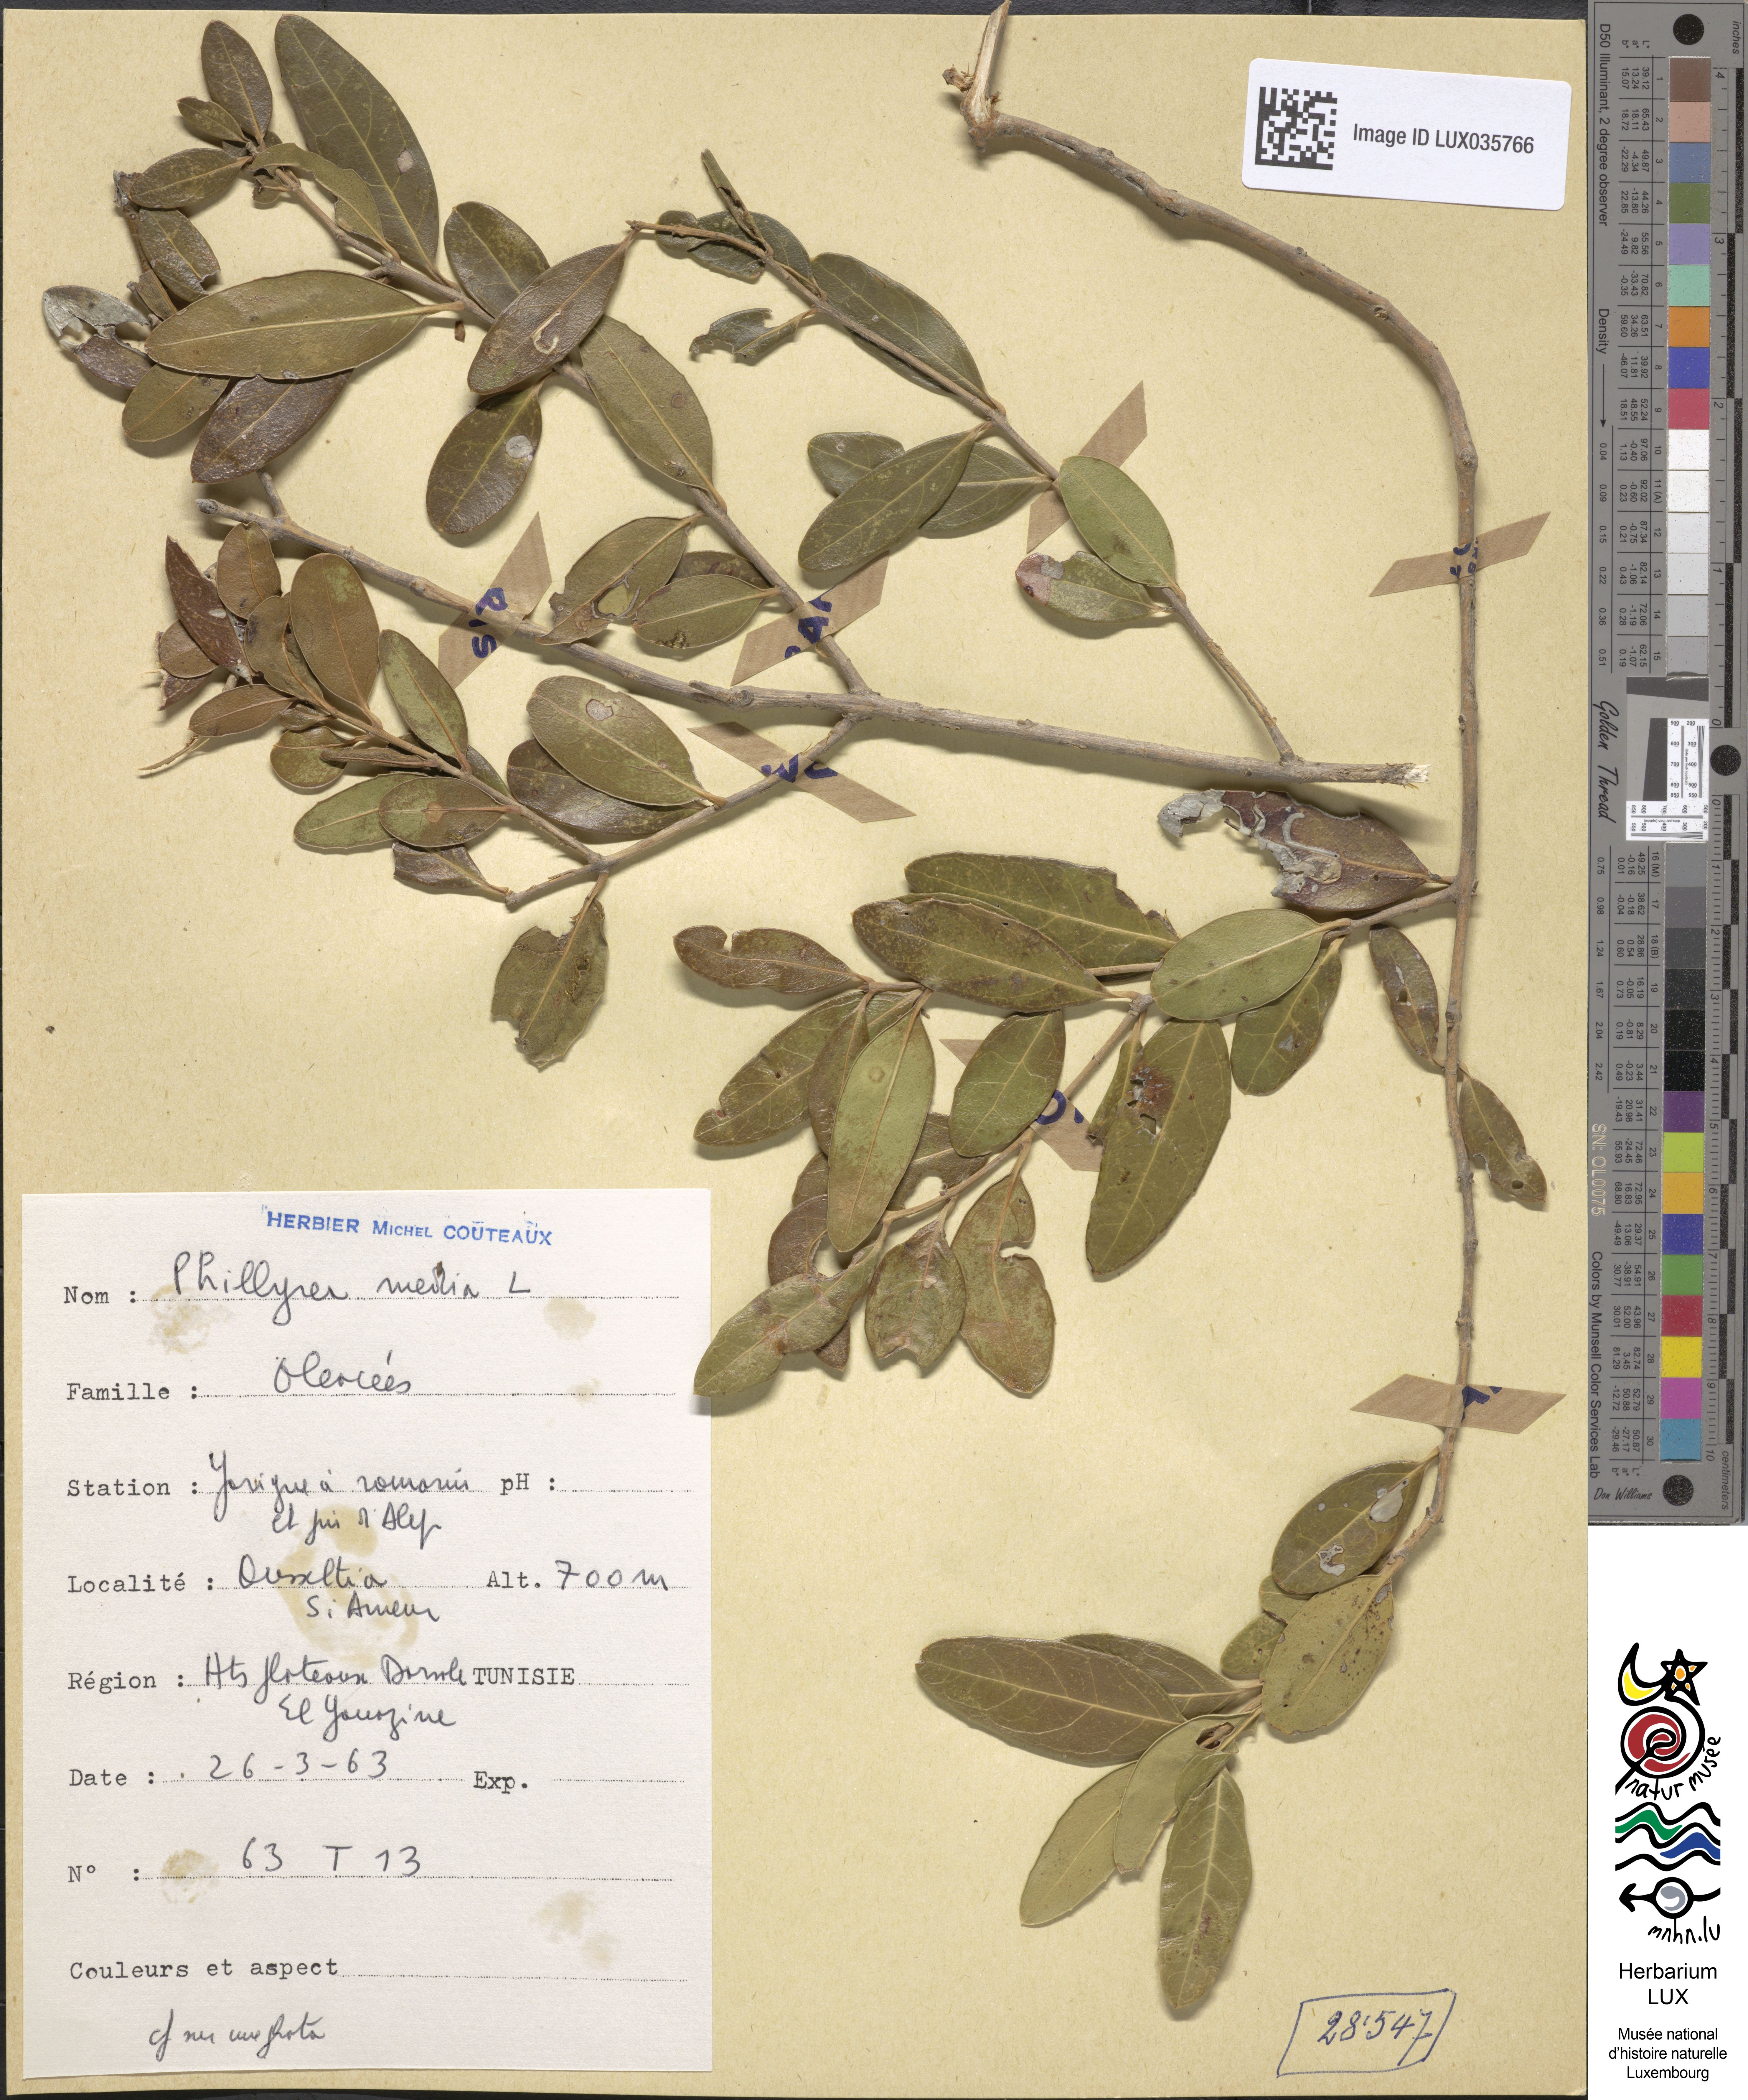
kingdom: Plantae
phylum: Tracheophyta
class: Magnoliopsida
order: Lamiales
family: Oleaceae
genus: Phillyrea
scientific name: Phillyrea latifolia
